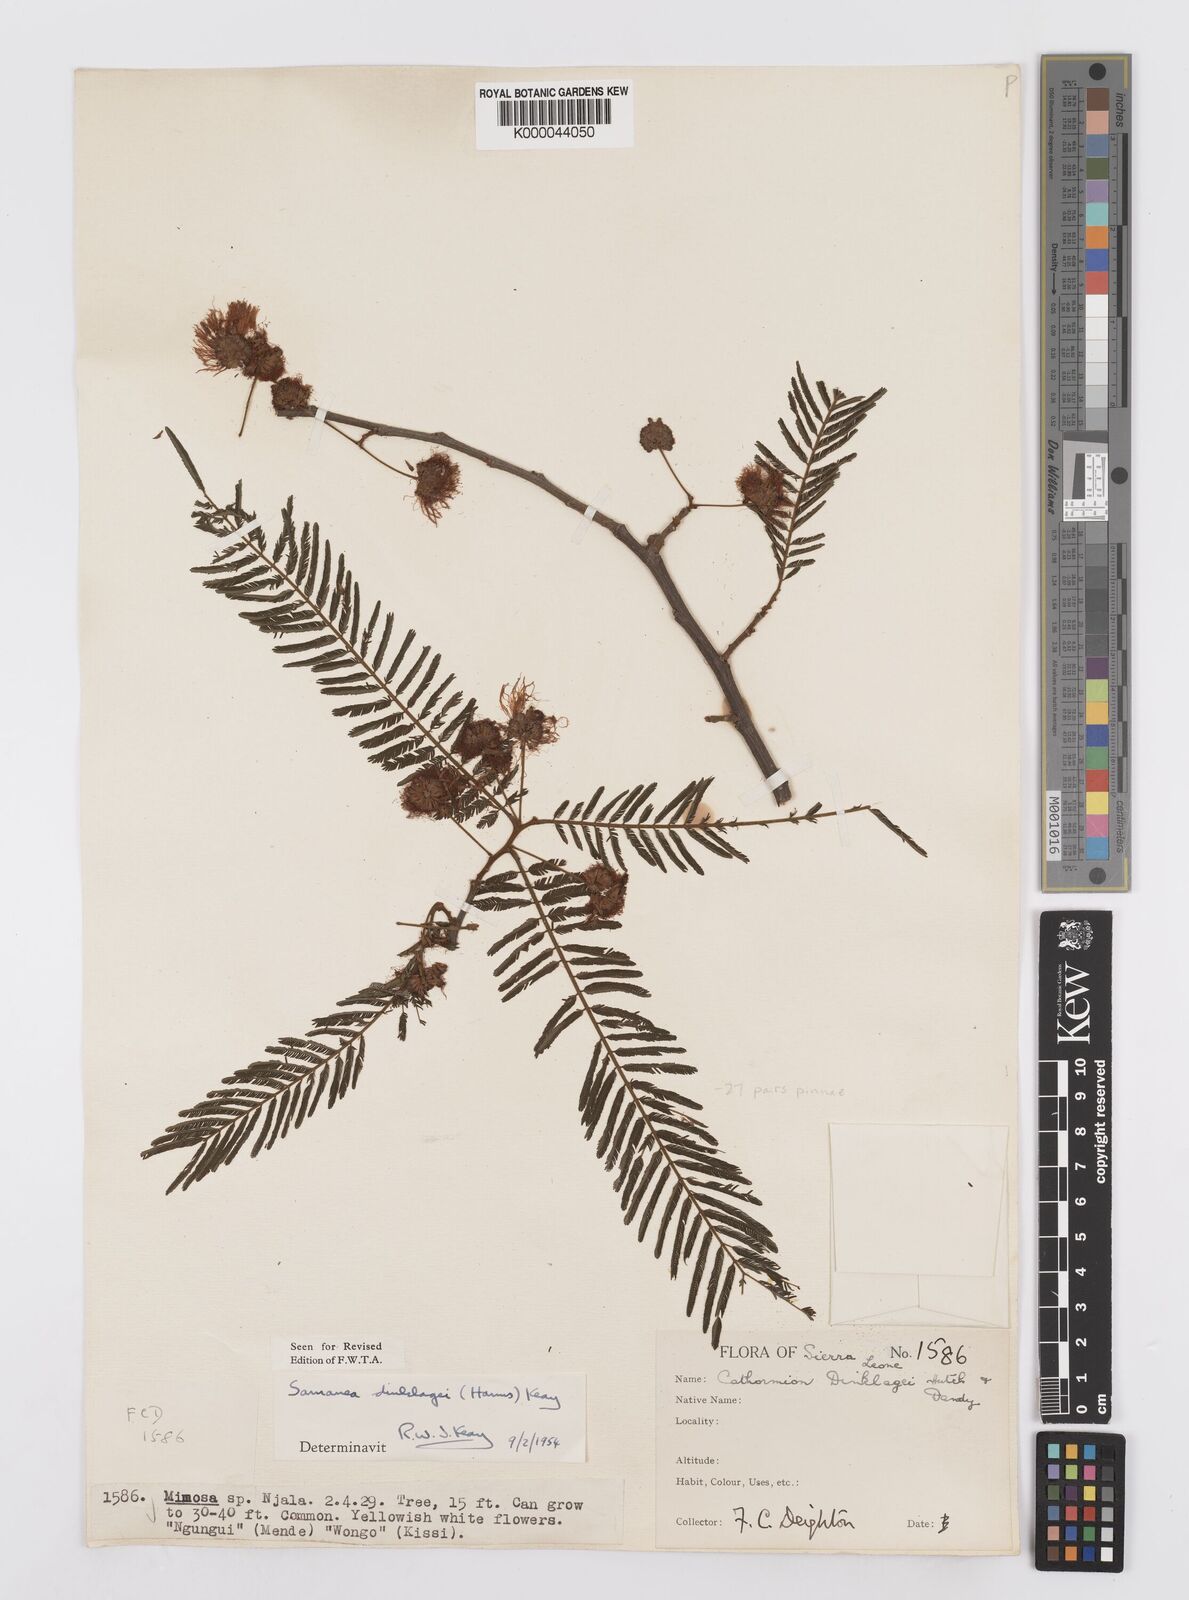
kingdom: Plantae
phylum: Tracheophyta
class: Magnoliopsida
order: Fabales
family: Fabaceae
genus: Albizia
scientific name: Albizia dinklagei
